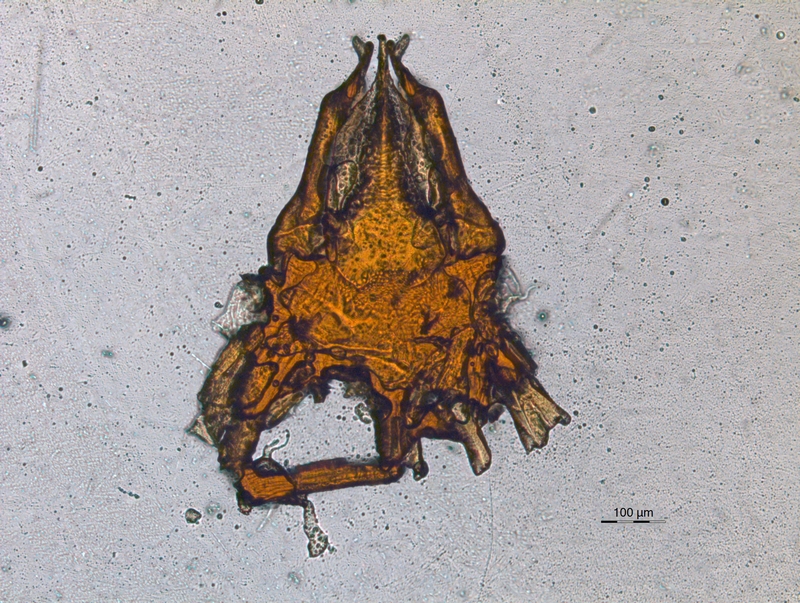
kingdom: Animalia
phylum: Arthropoda
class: Diplopoda
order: Chordeumatida
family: Chordeumatidae
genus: Melogona
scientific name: Melogona voigtii
